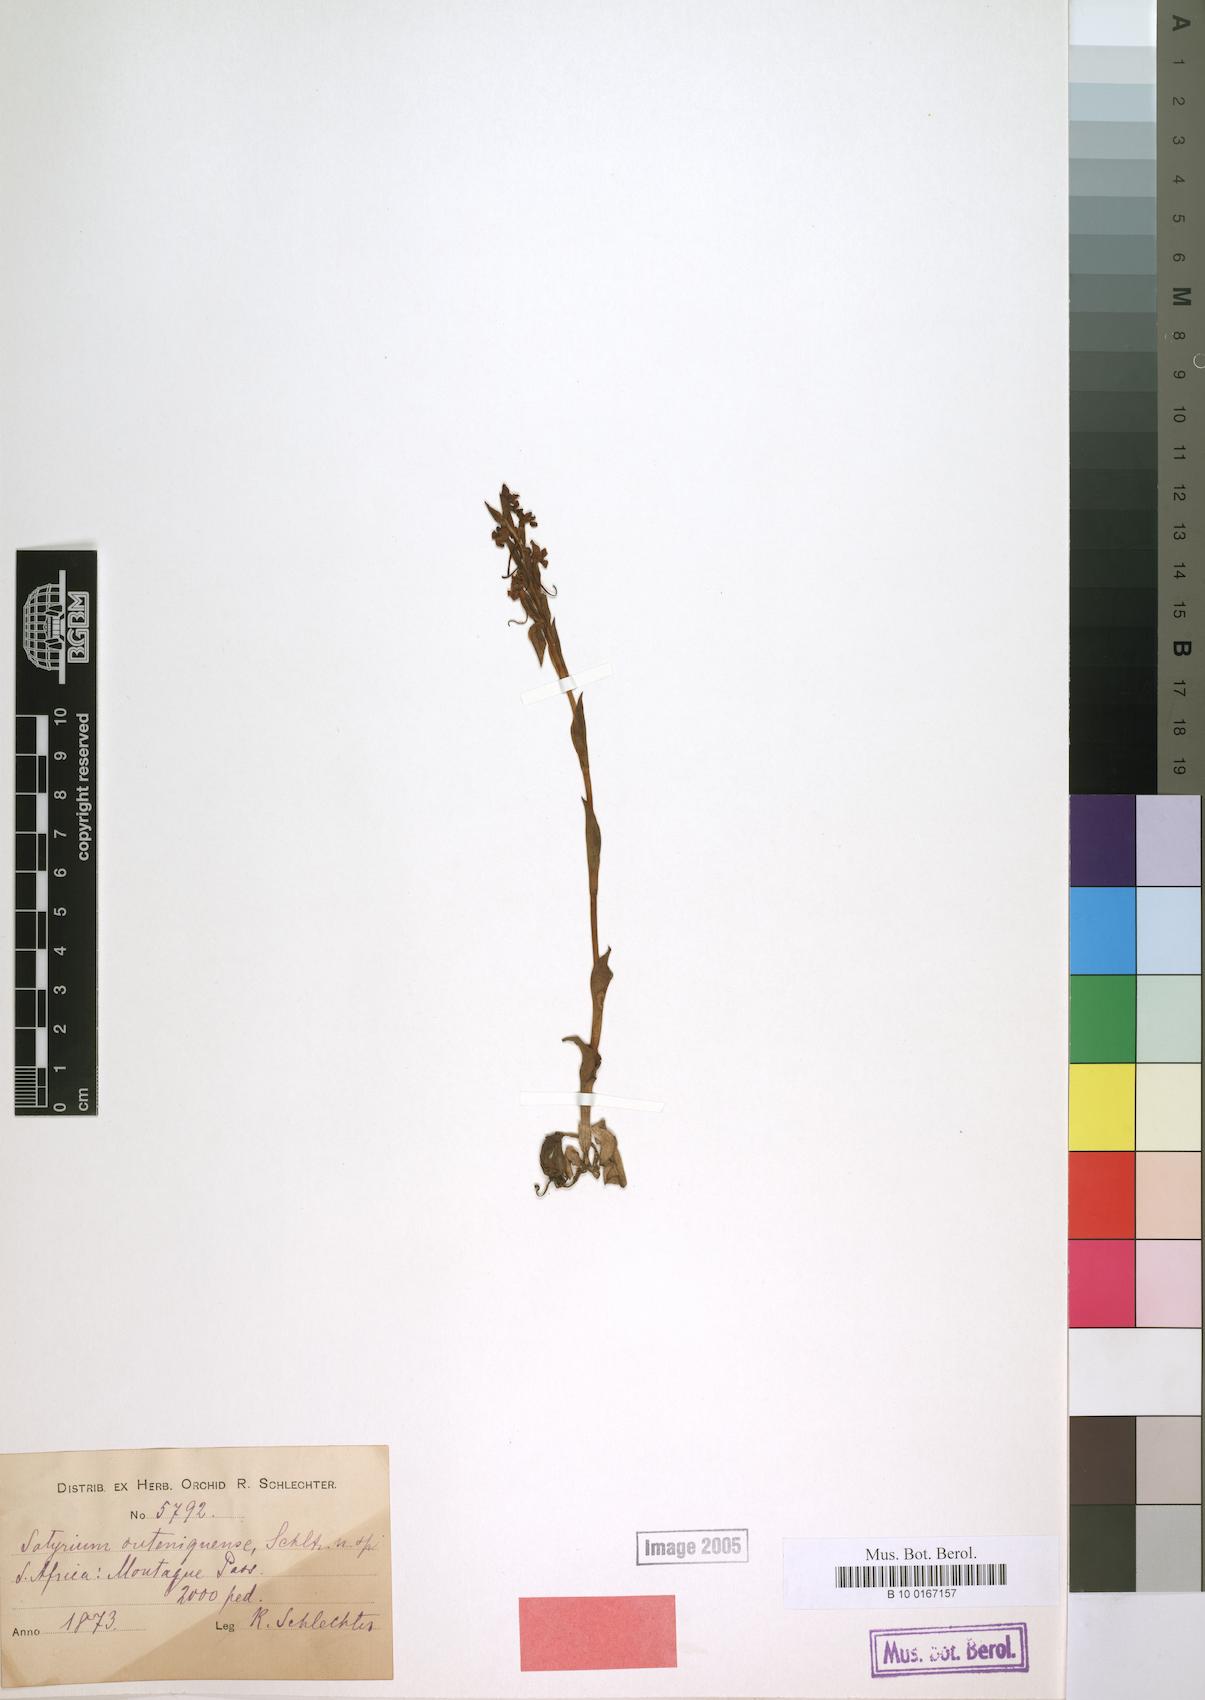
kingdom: Plantae
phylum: Tracheophyta
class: Liliopsida
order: Asparagales
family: Orchidaceae
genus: Satyrium
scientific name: Satyrium outeniquense
